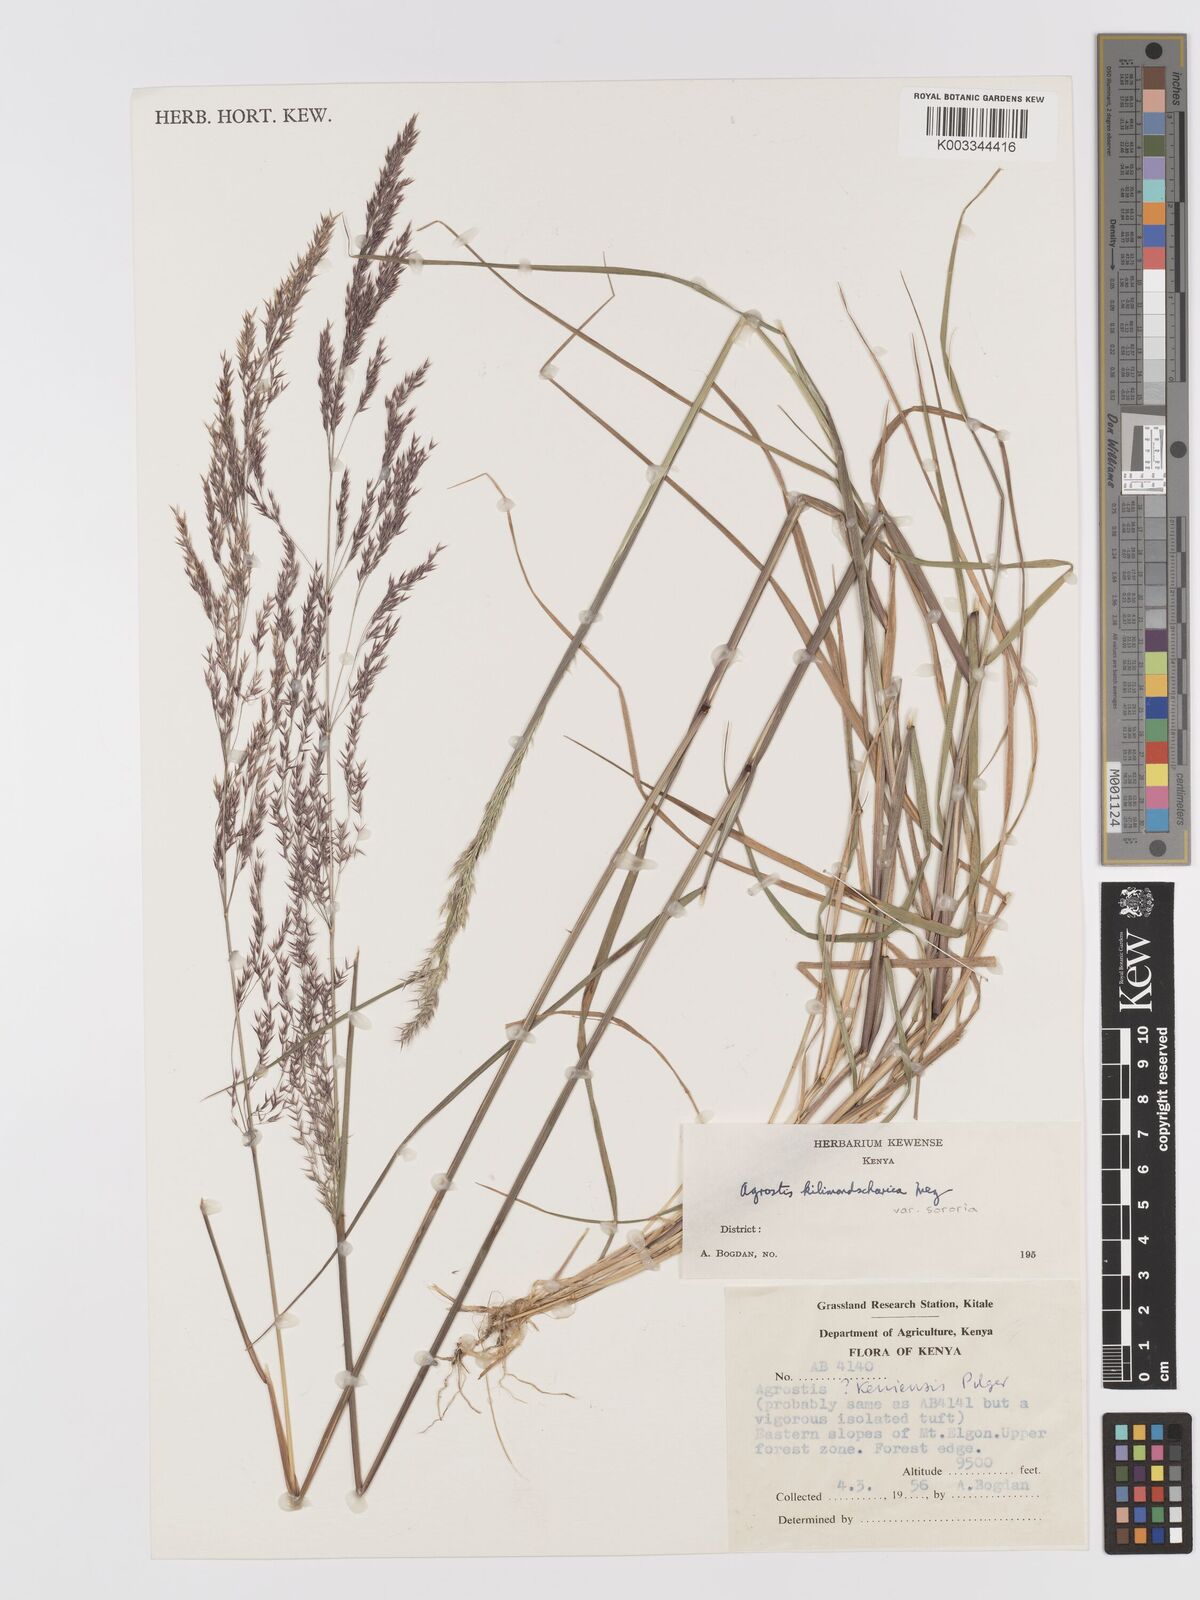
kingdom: Plantae
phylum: Tracheophyta
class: Liliopsida
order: Poales
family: Poaceae
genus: Agrostis
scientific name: Agrostis kilimandscharica
